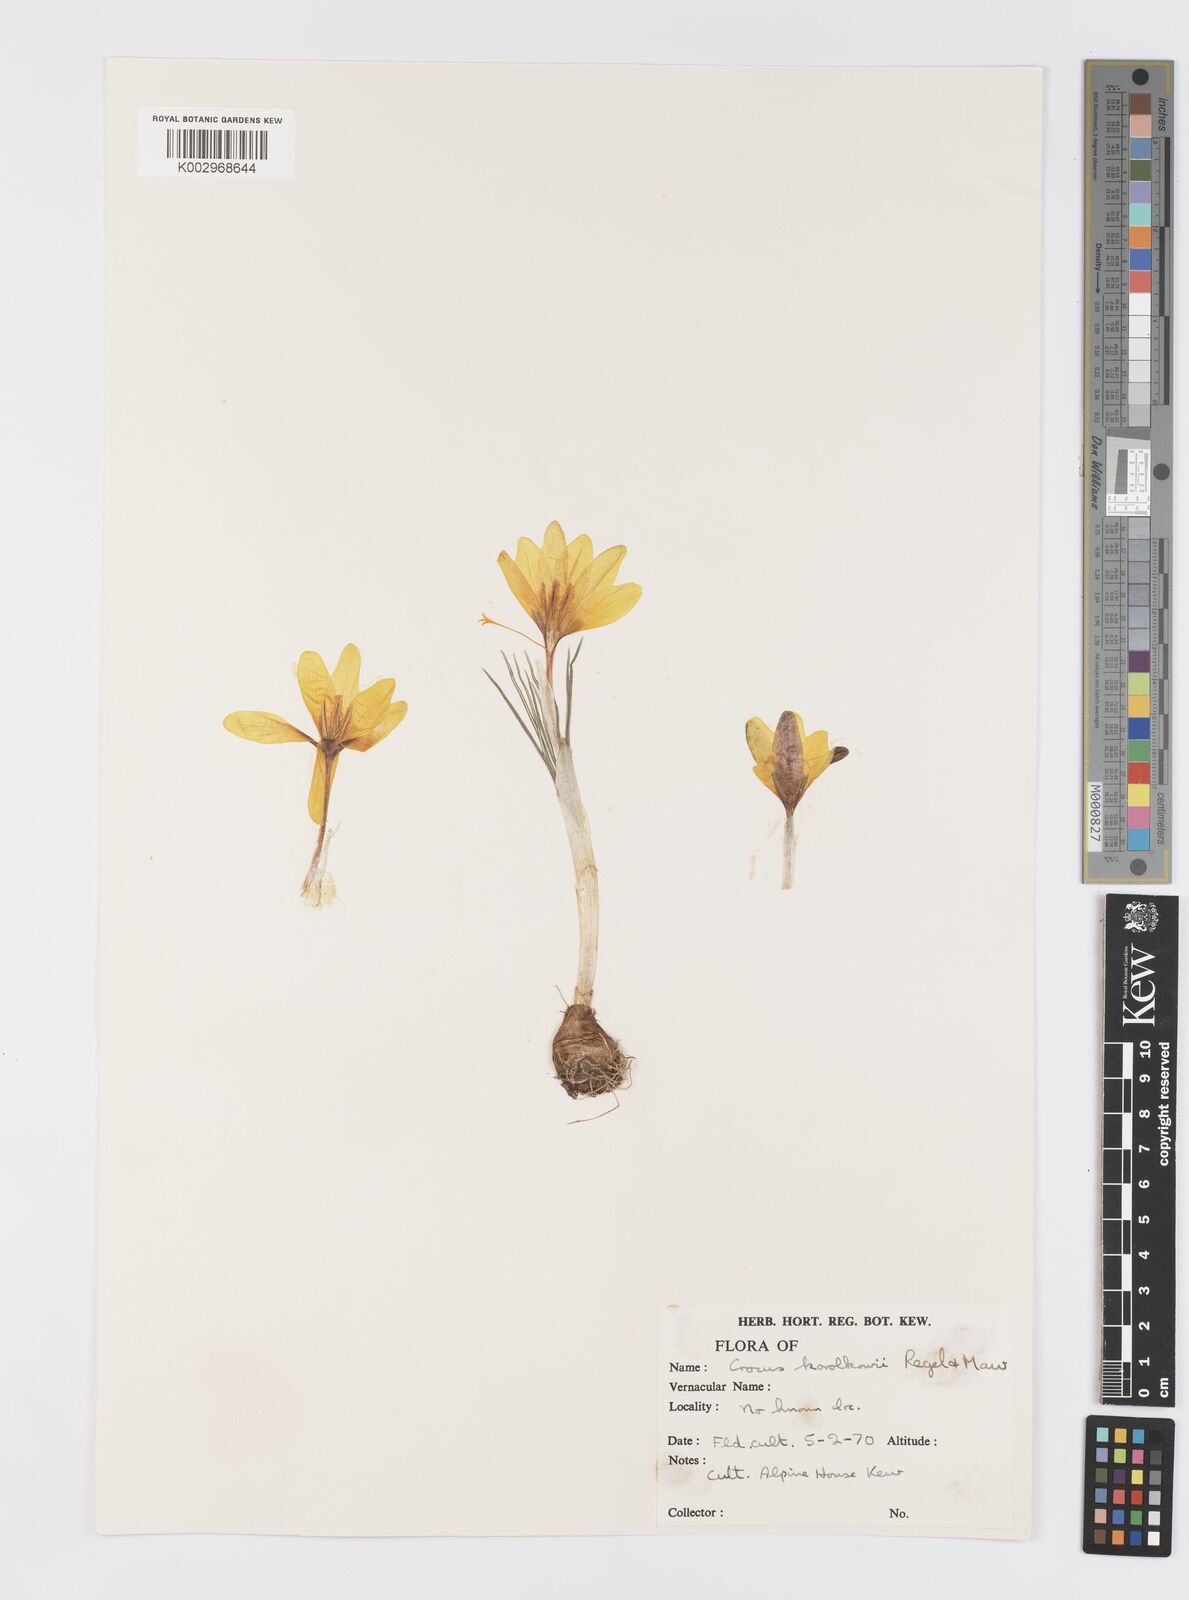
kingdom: Plantae
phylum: Tracheophyta
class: Liliopsida
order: Asparagales
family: Iridaceae
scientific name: Iridaceae
